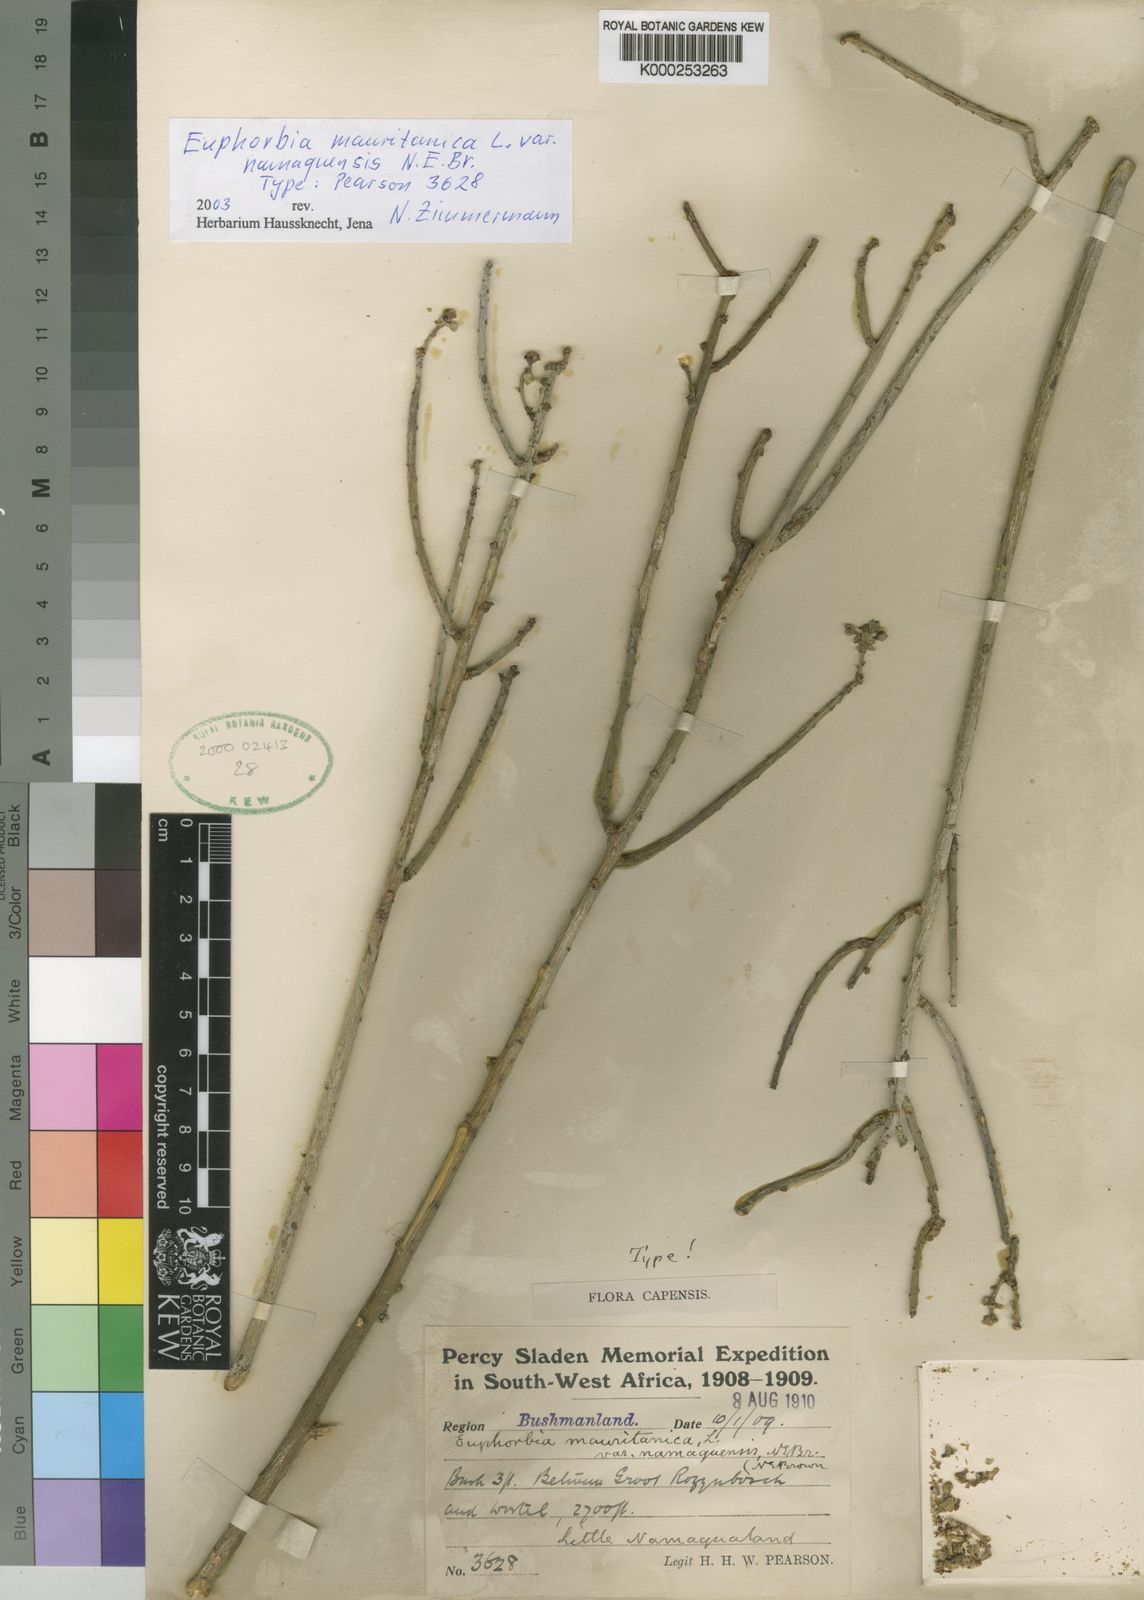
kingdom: Plantae
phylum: Tracheophyta
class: Magnoliopsida
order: Malpighiales
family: Euphorbiaceae
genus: Euphorbia
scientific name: Euphorbia mauritanica
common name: Jackal's-food
